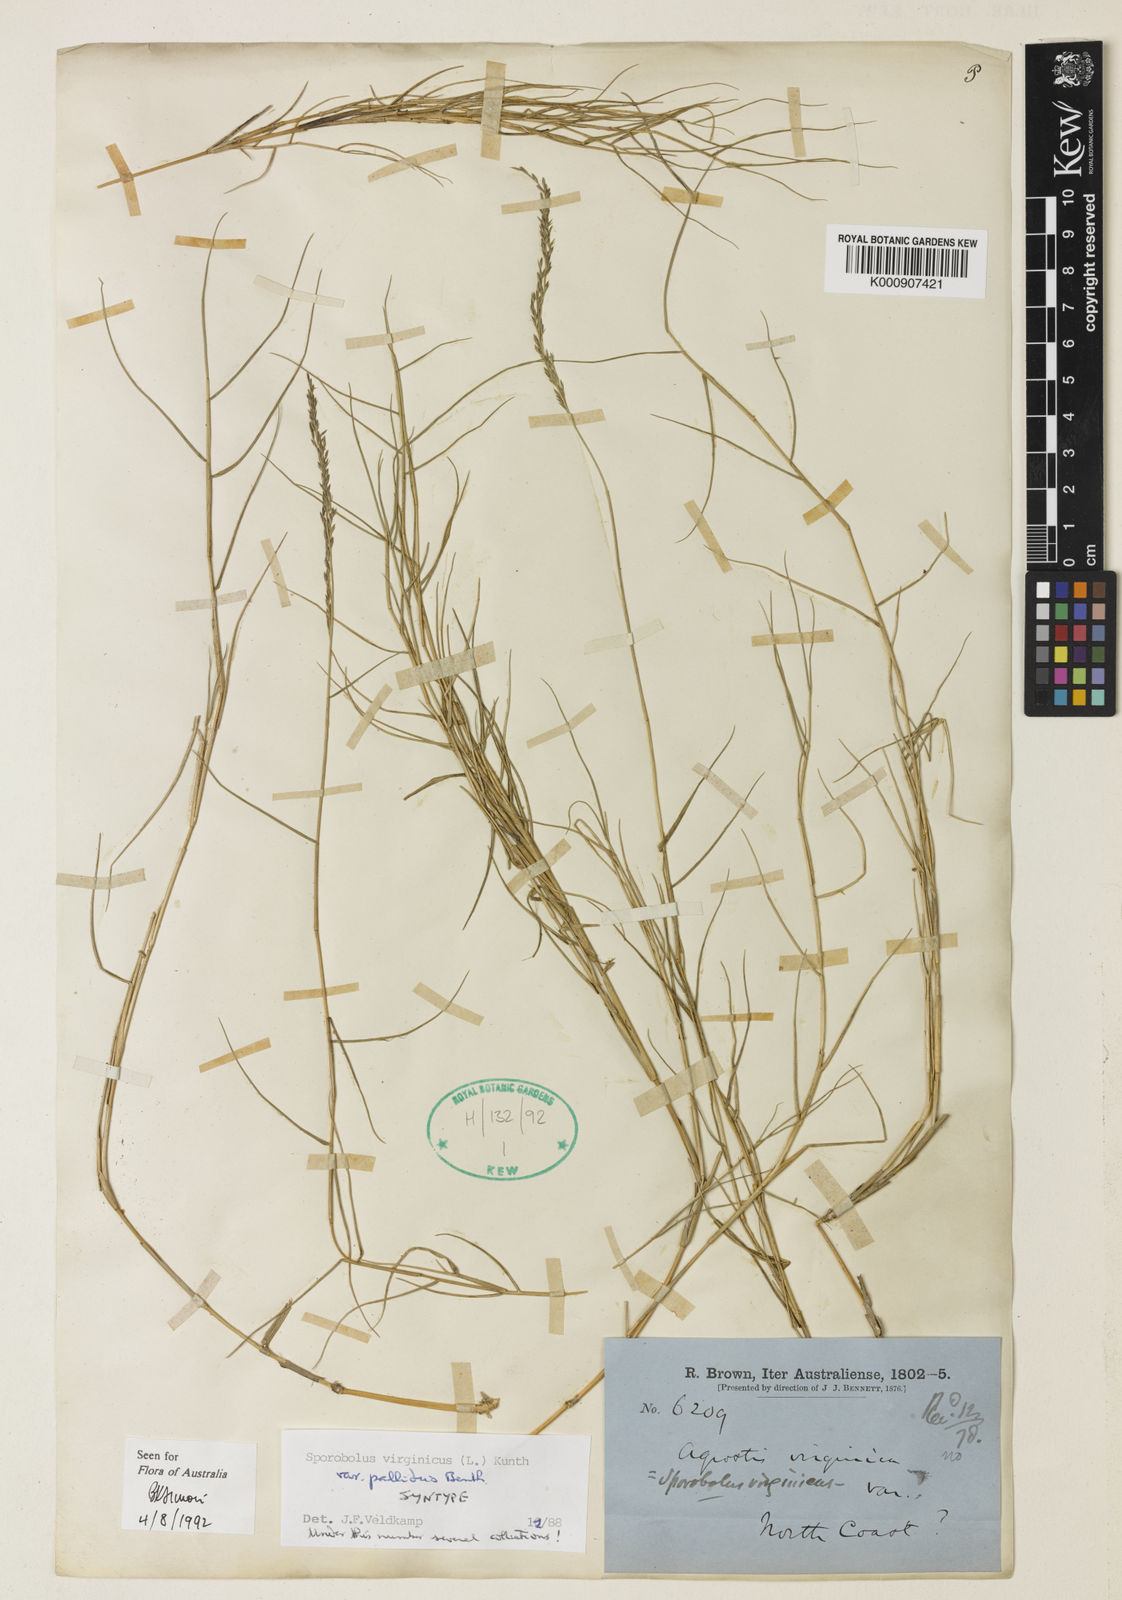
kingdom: Plantae
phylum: Tracheophyta
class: Liliopsida
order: Poales
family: Poaceae
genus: Sporobolus
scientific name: Sporobolus virginicus
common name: Beach dropseed
